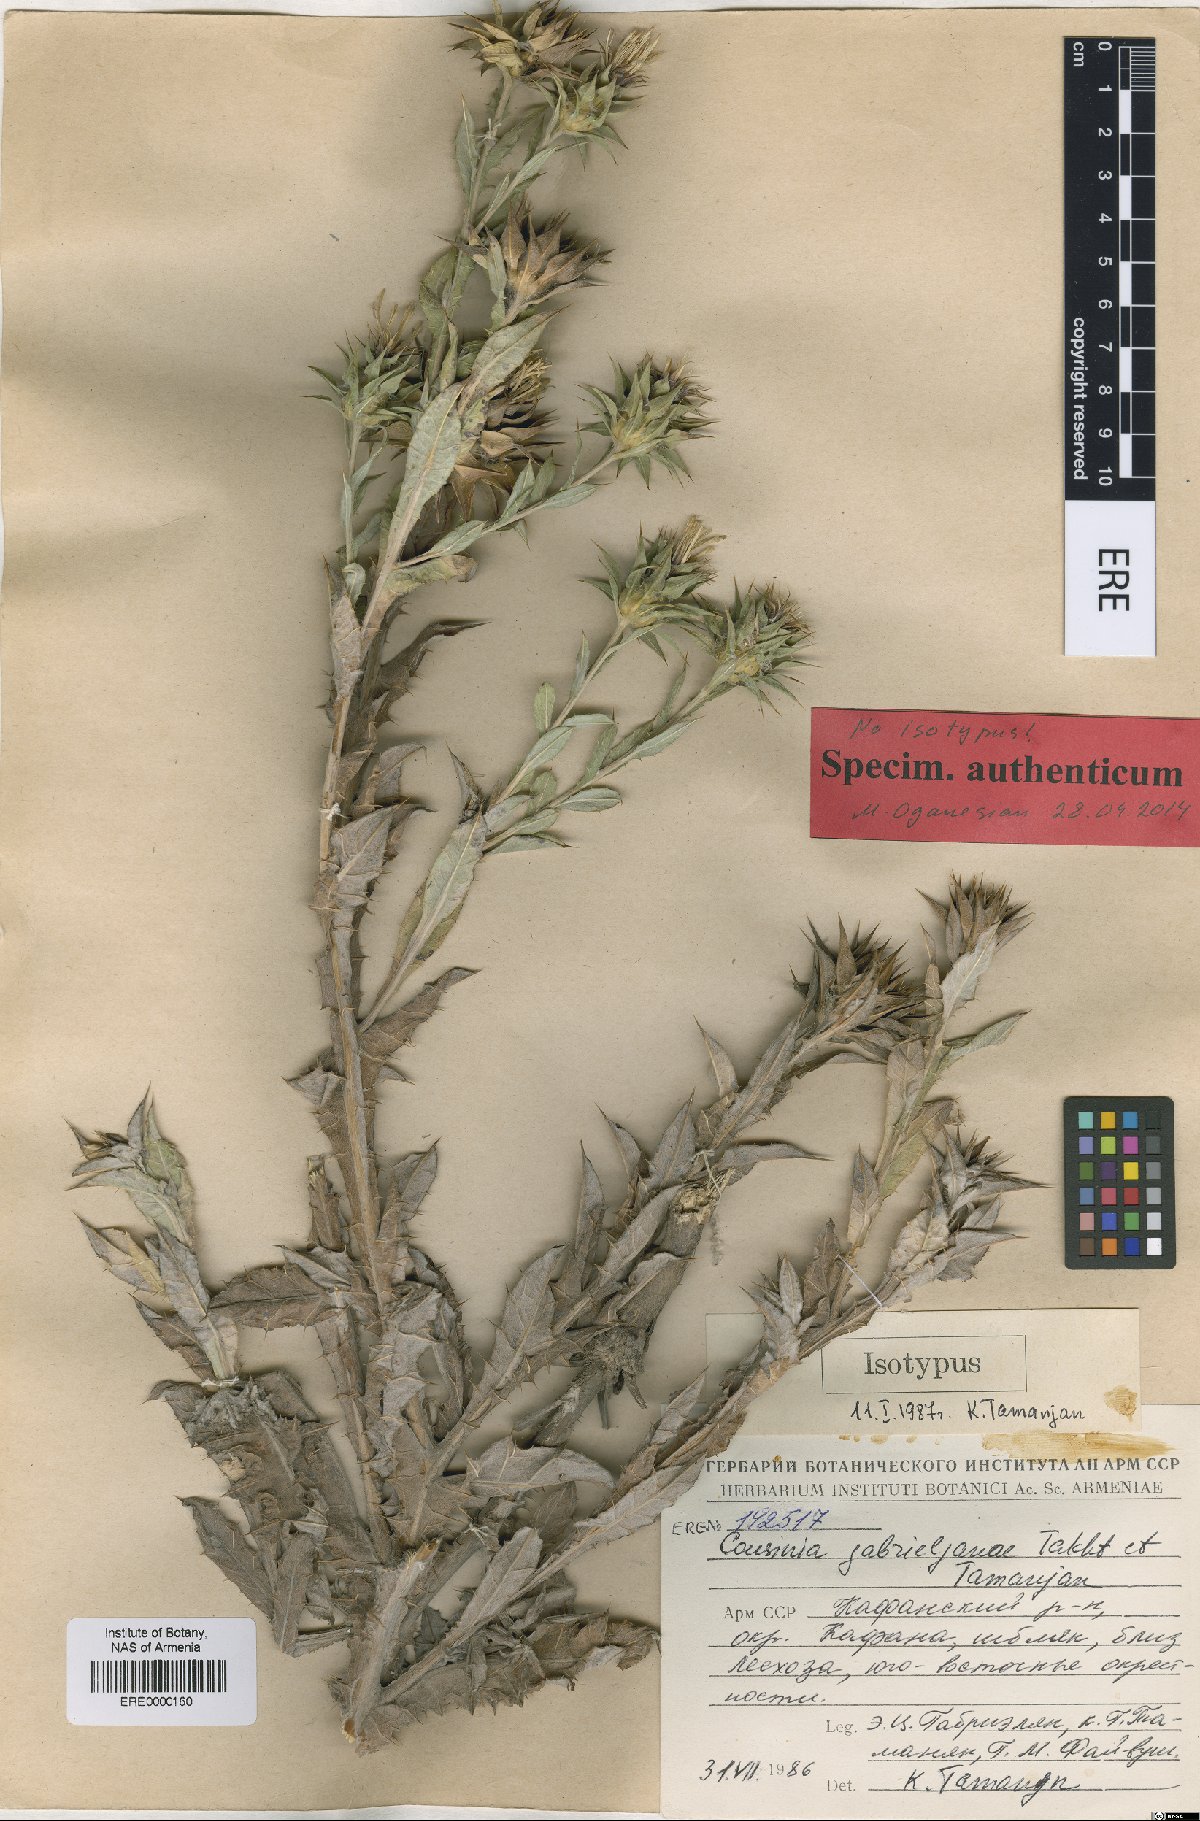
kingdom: Plantae
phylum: Tracheophyta
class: Magnoliopsida
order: Asterales
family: Asteraceae
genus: Cousinia
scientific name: Cousinia macrocephala
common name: Macrocephalous cousinia
